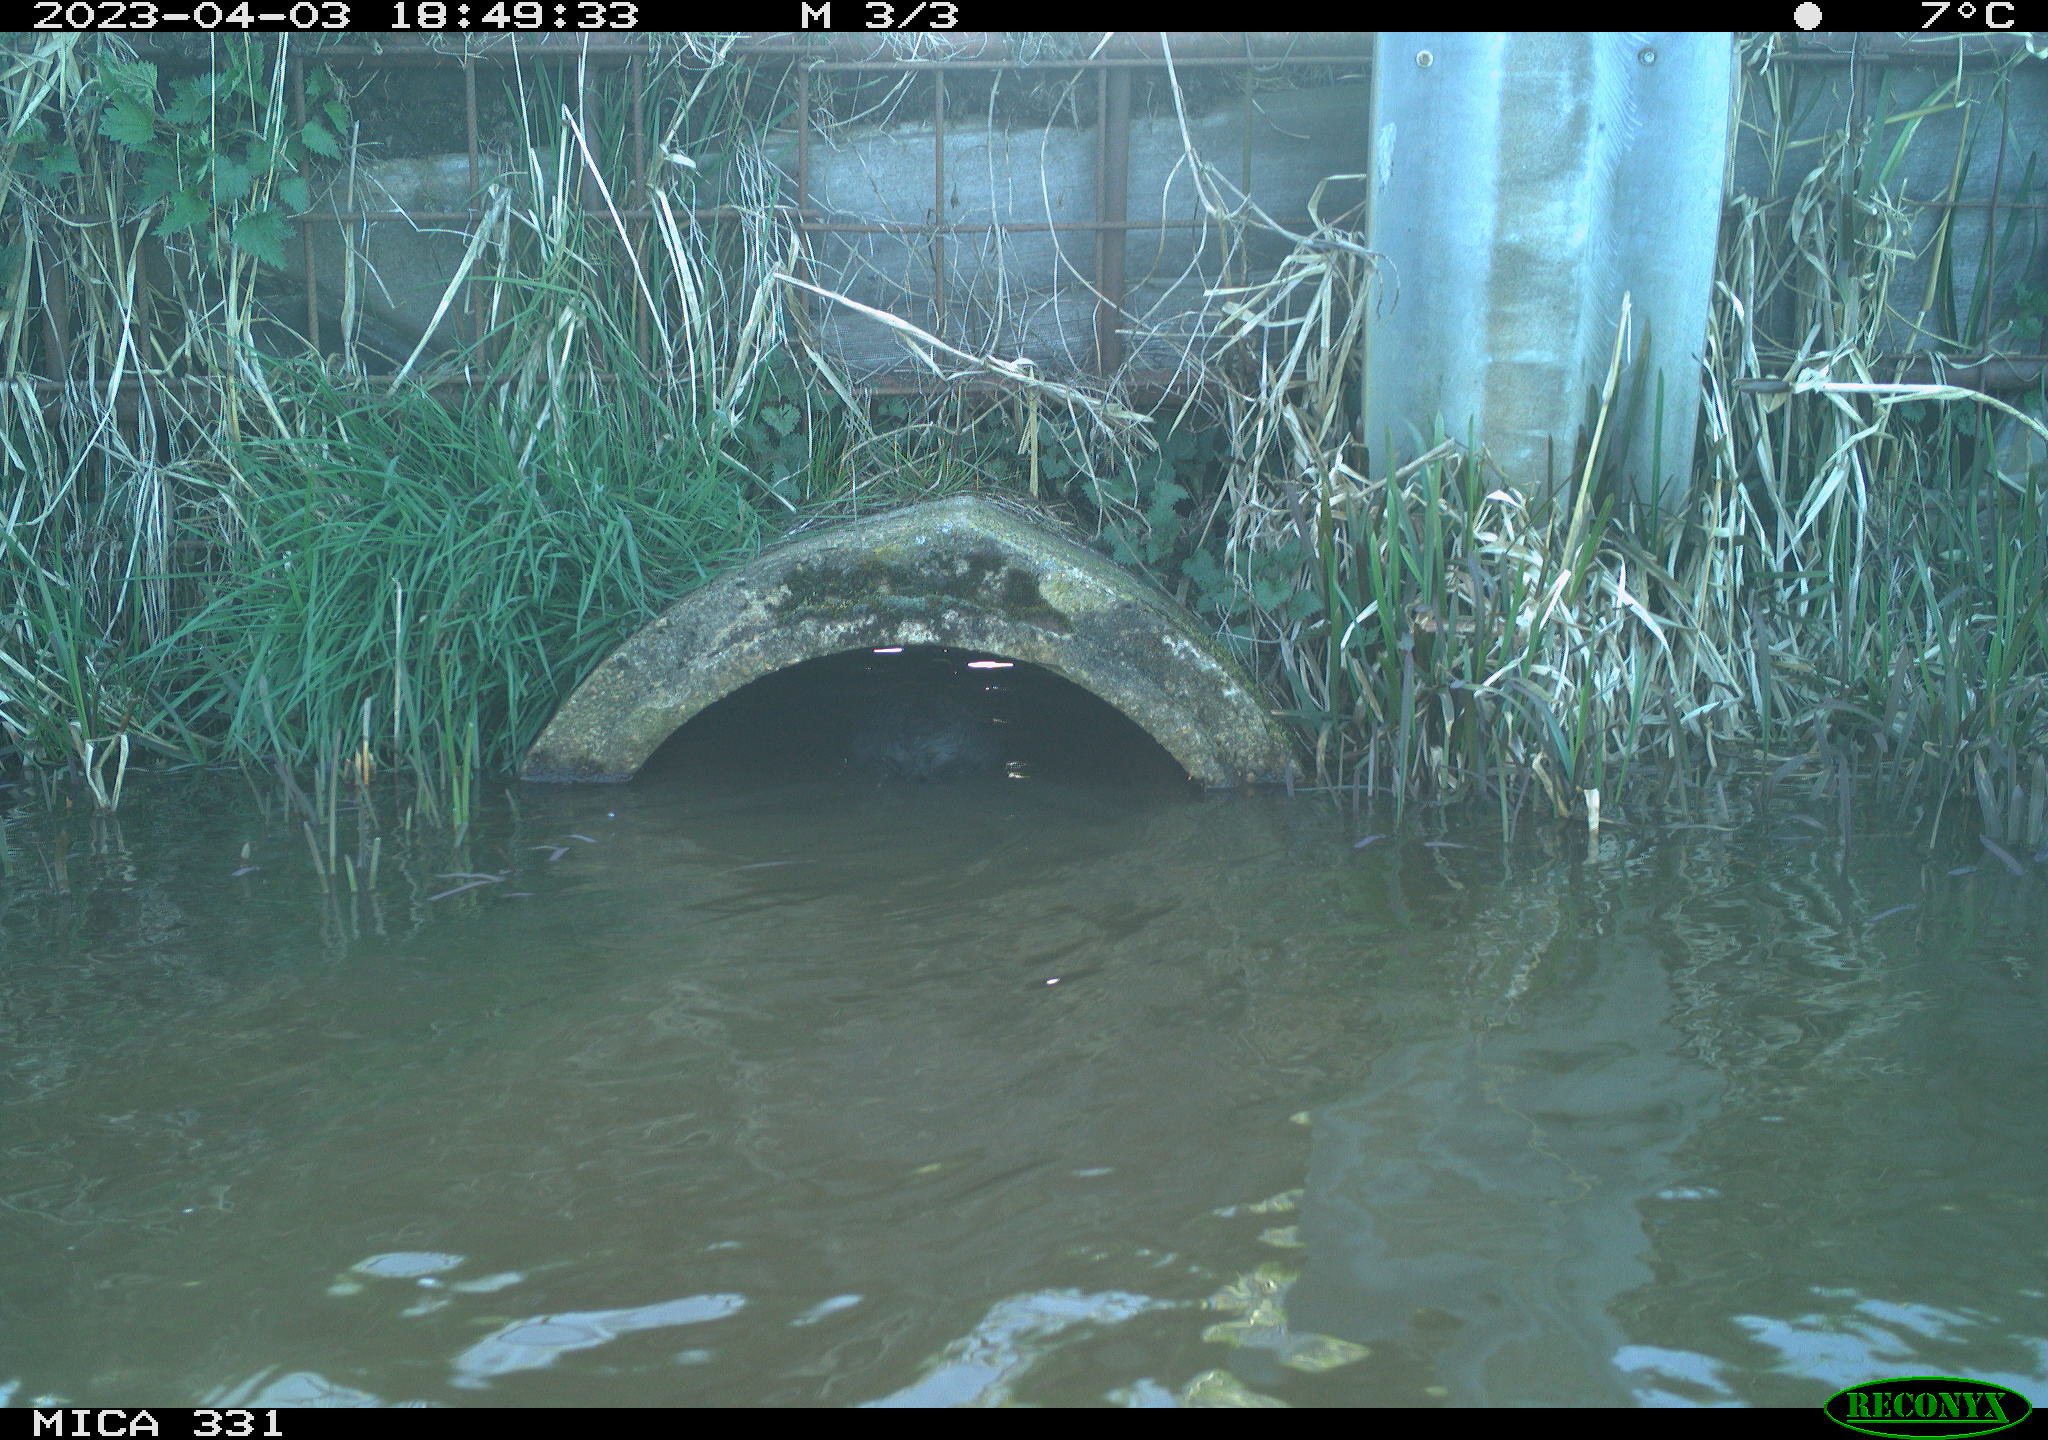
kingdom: Animalia
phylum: Chordata
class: Aves
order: Gruiformes
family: Rallidae
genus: Fulica
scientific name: Fulica atra
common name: Eurasian coot
